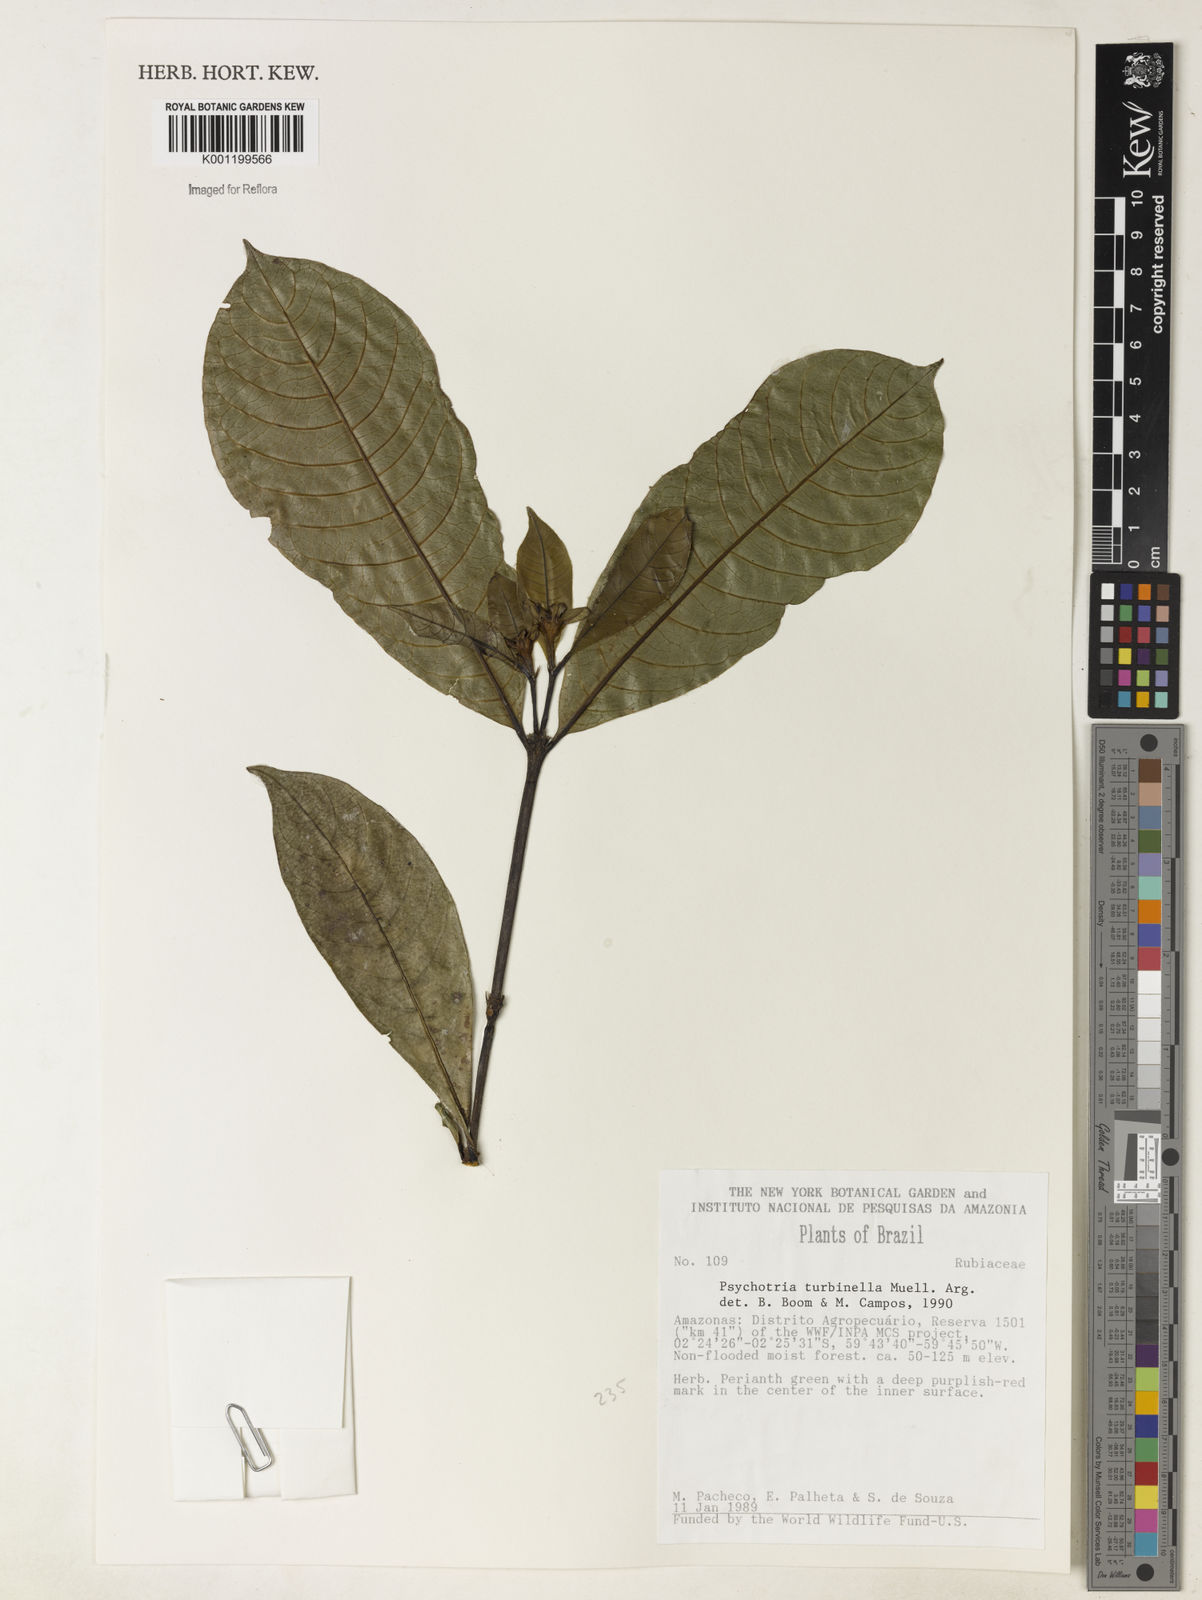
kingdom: Plantae
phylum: Tracheophyta
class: Magnoliopsida
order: Gentianales
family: Rubiaceae
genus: Psychotria
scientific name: Psychotria
